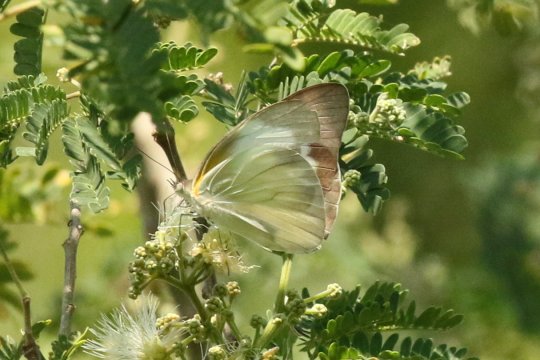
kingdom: Animalia
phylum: Arthropoda
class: Insecta
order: Lepidoptera
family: Pieridae
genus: Glutophrissa
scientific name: Glutophrissa drusilla
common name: Florida White
